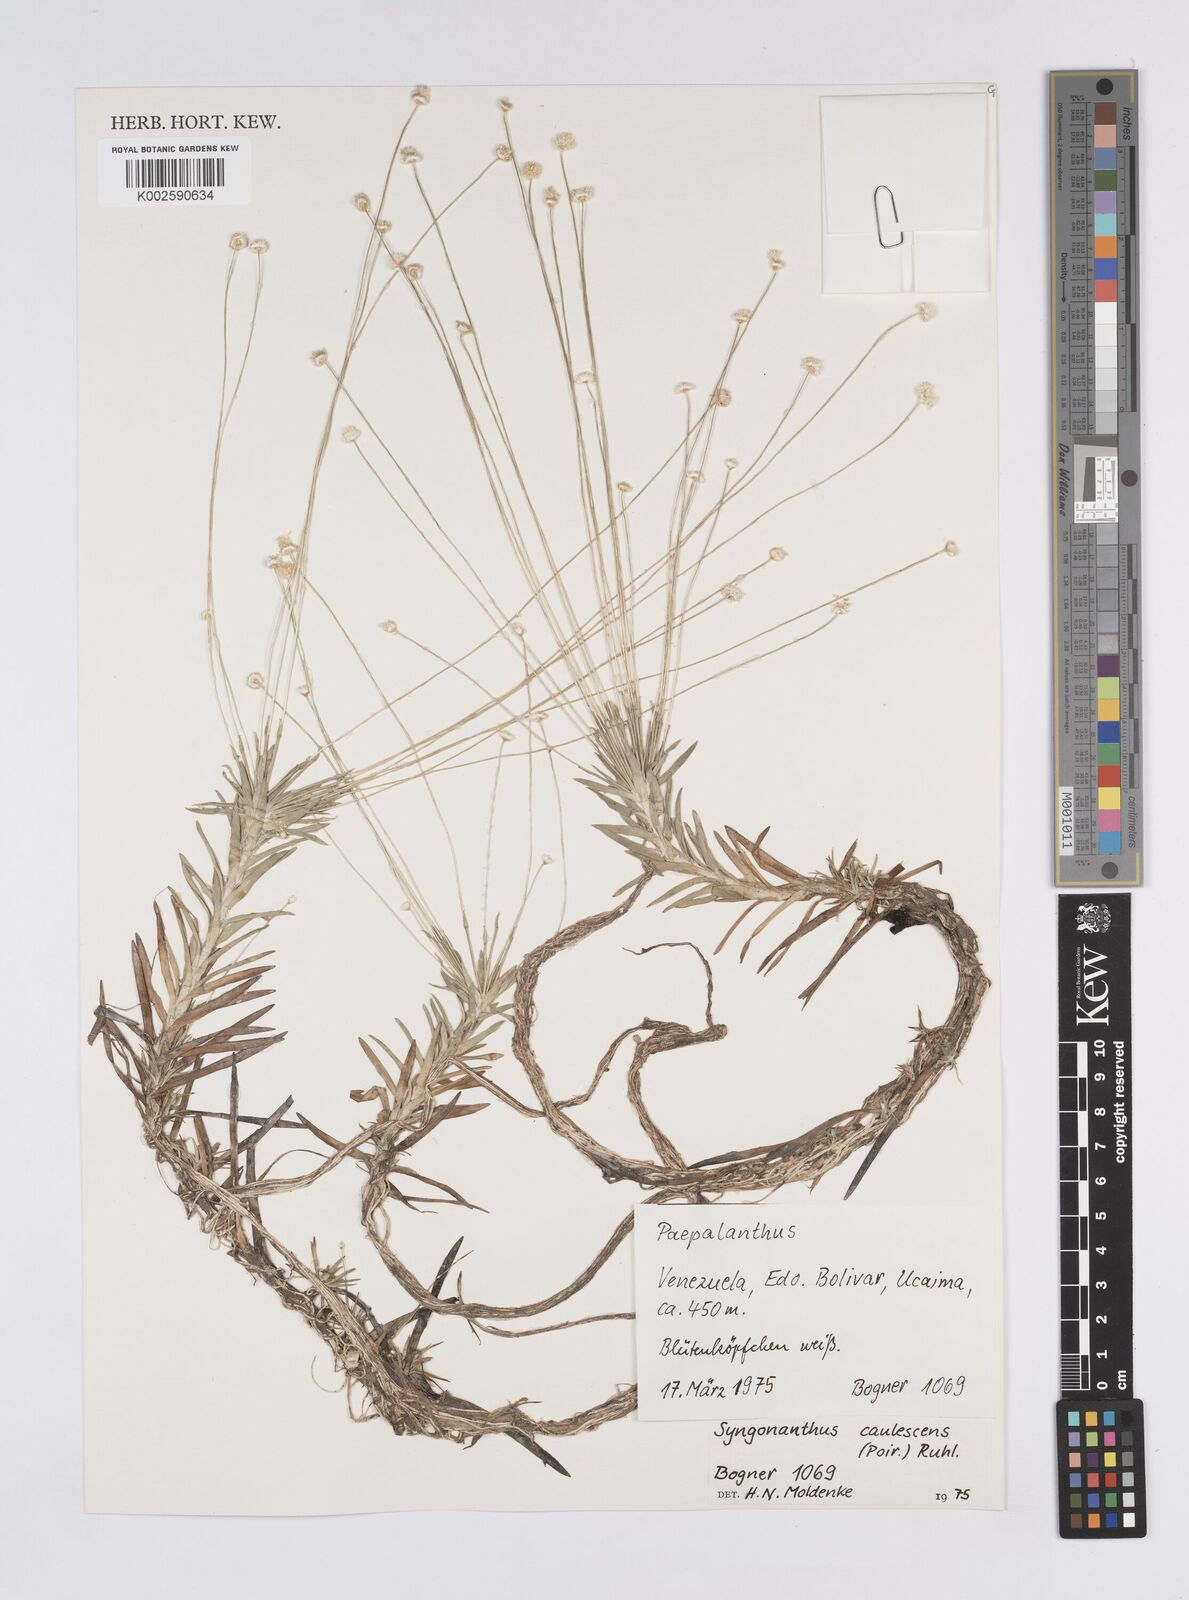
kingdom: Plantae
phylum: Tracheophyta
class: Liliopsida
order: Poales
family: Eriocaulaceae
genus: Syngonanthus
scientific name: Syngonanthus caulescens
